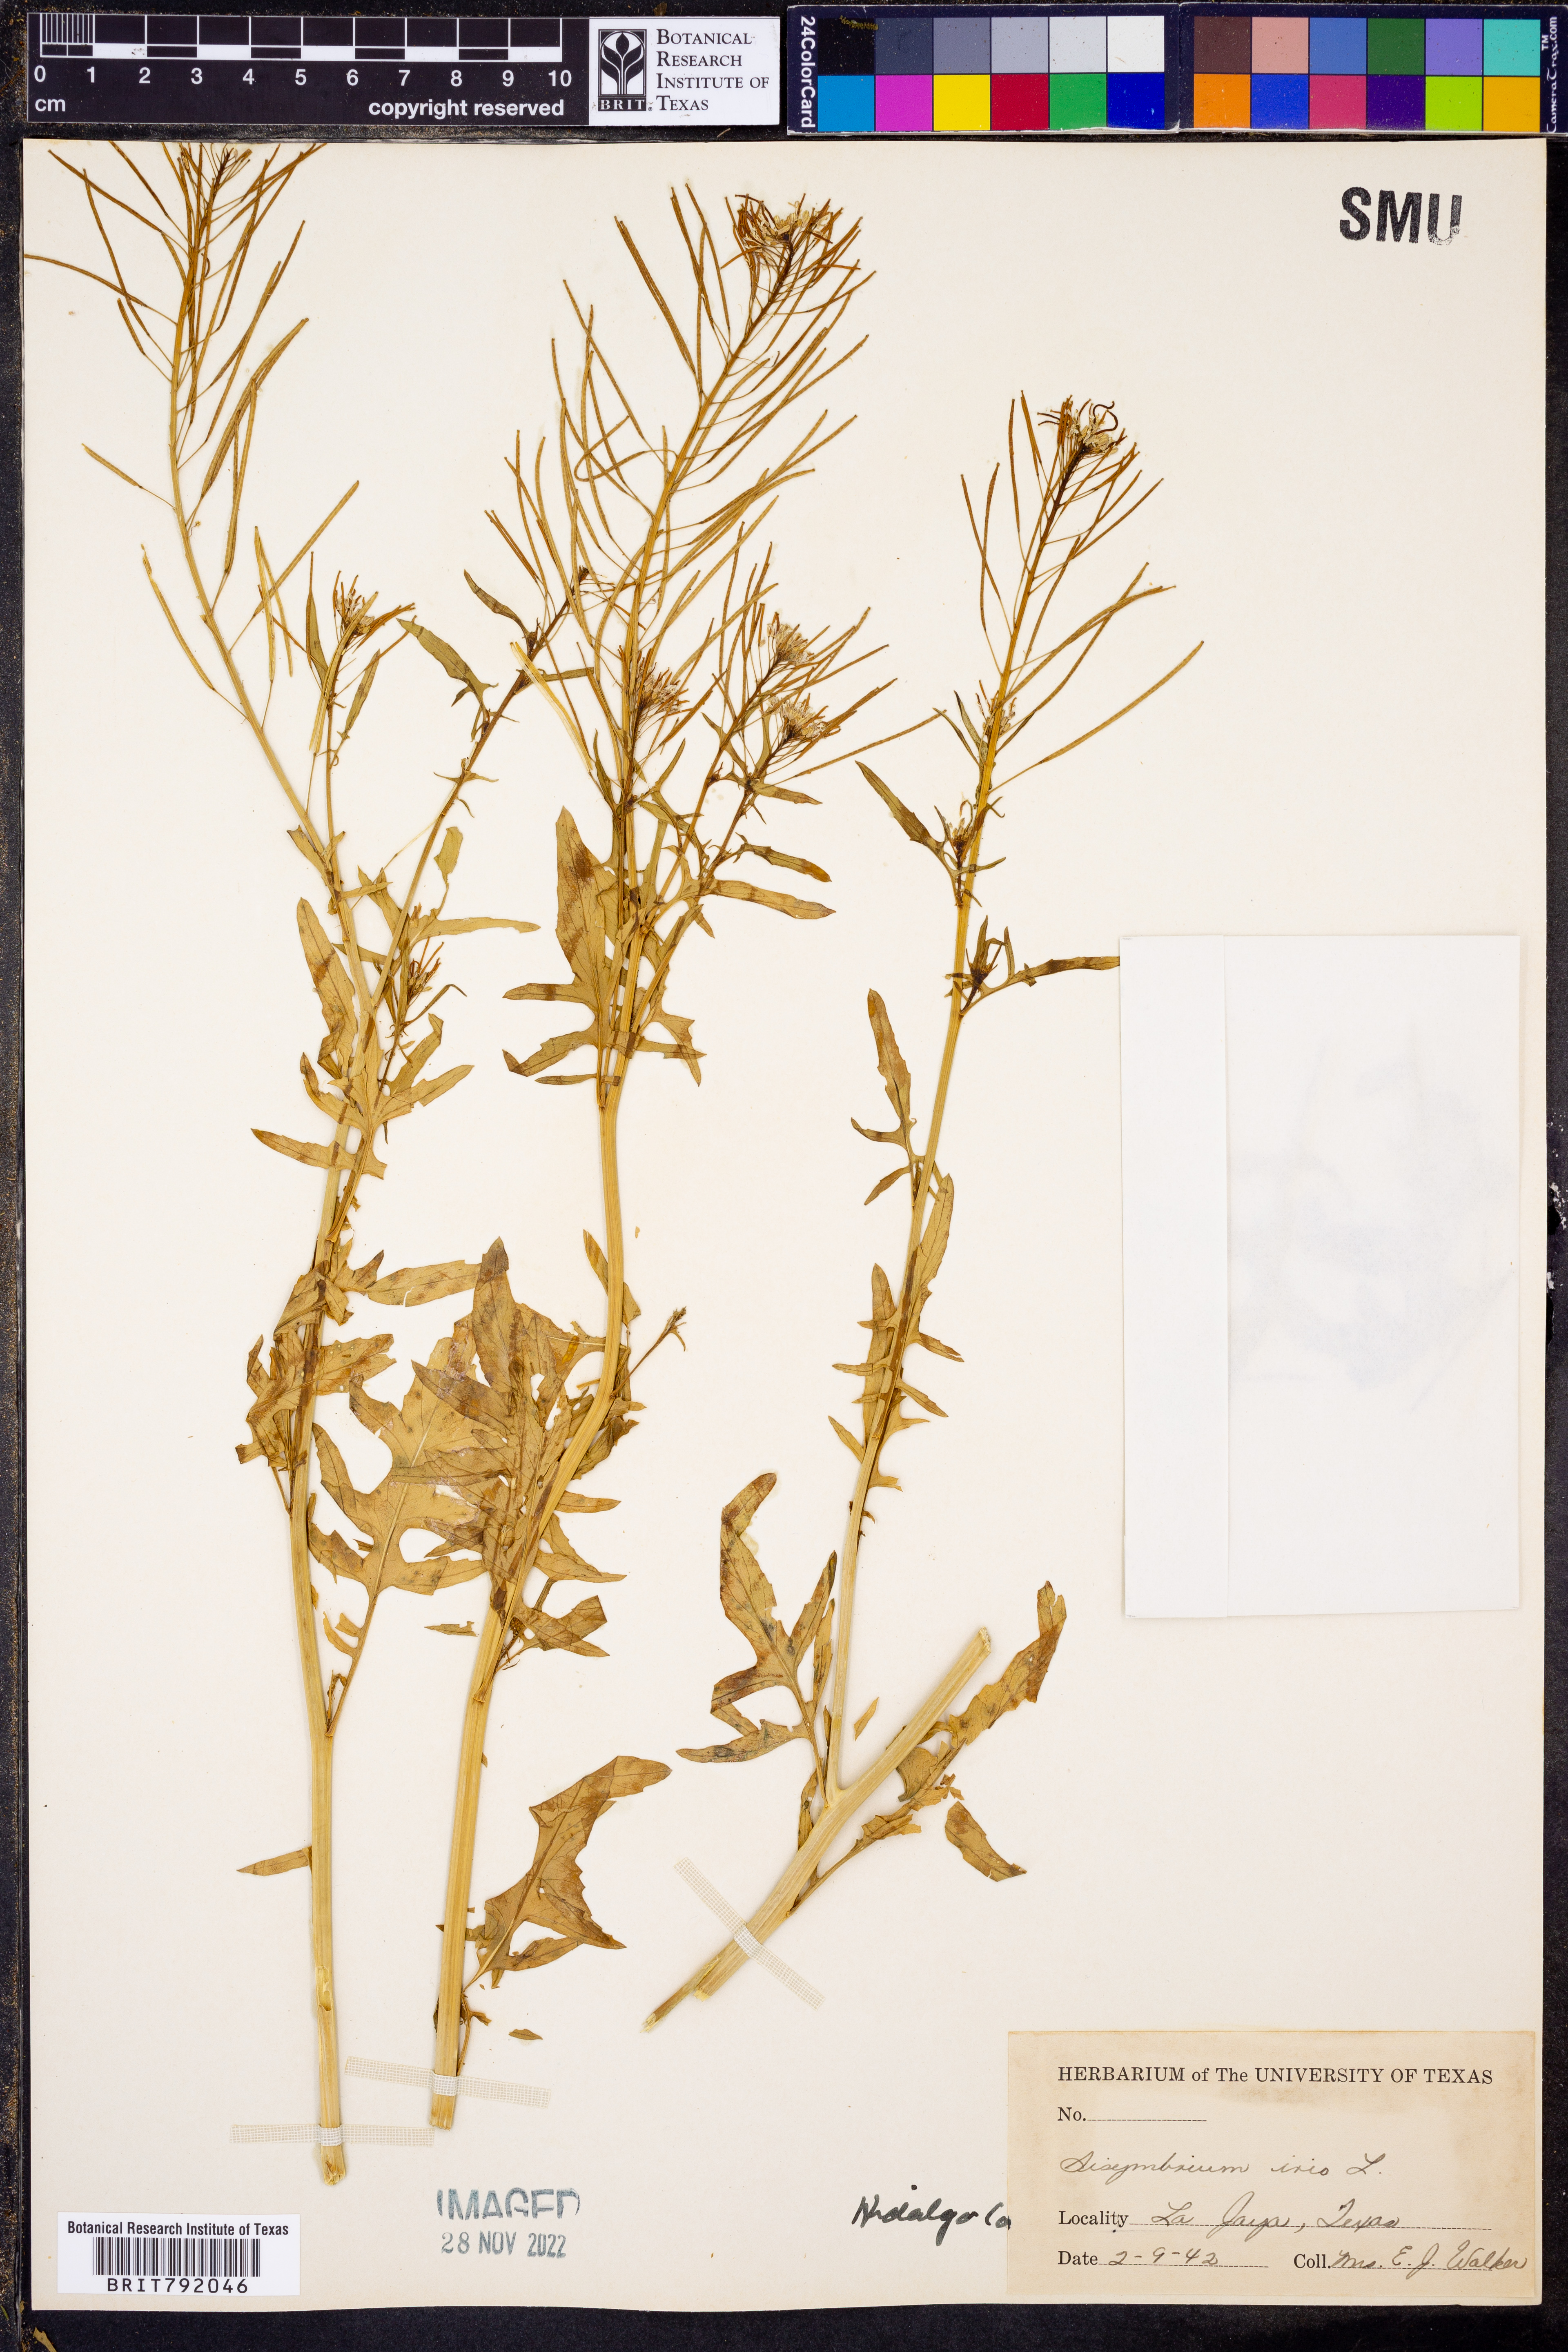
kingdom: Plantae
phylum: Tracheophyta
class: Magnoliopsida
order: Brassicales
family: Brassicaceae
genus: Sisymbrium
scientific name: Sisymbrium irio
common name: London rocket
